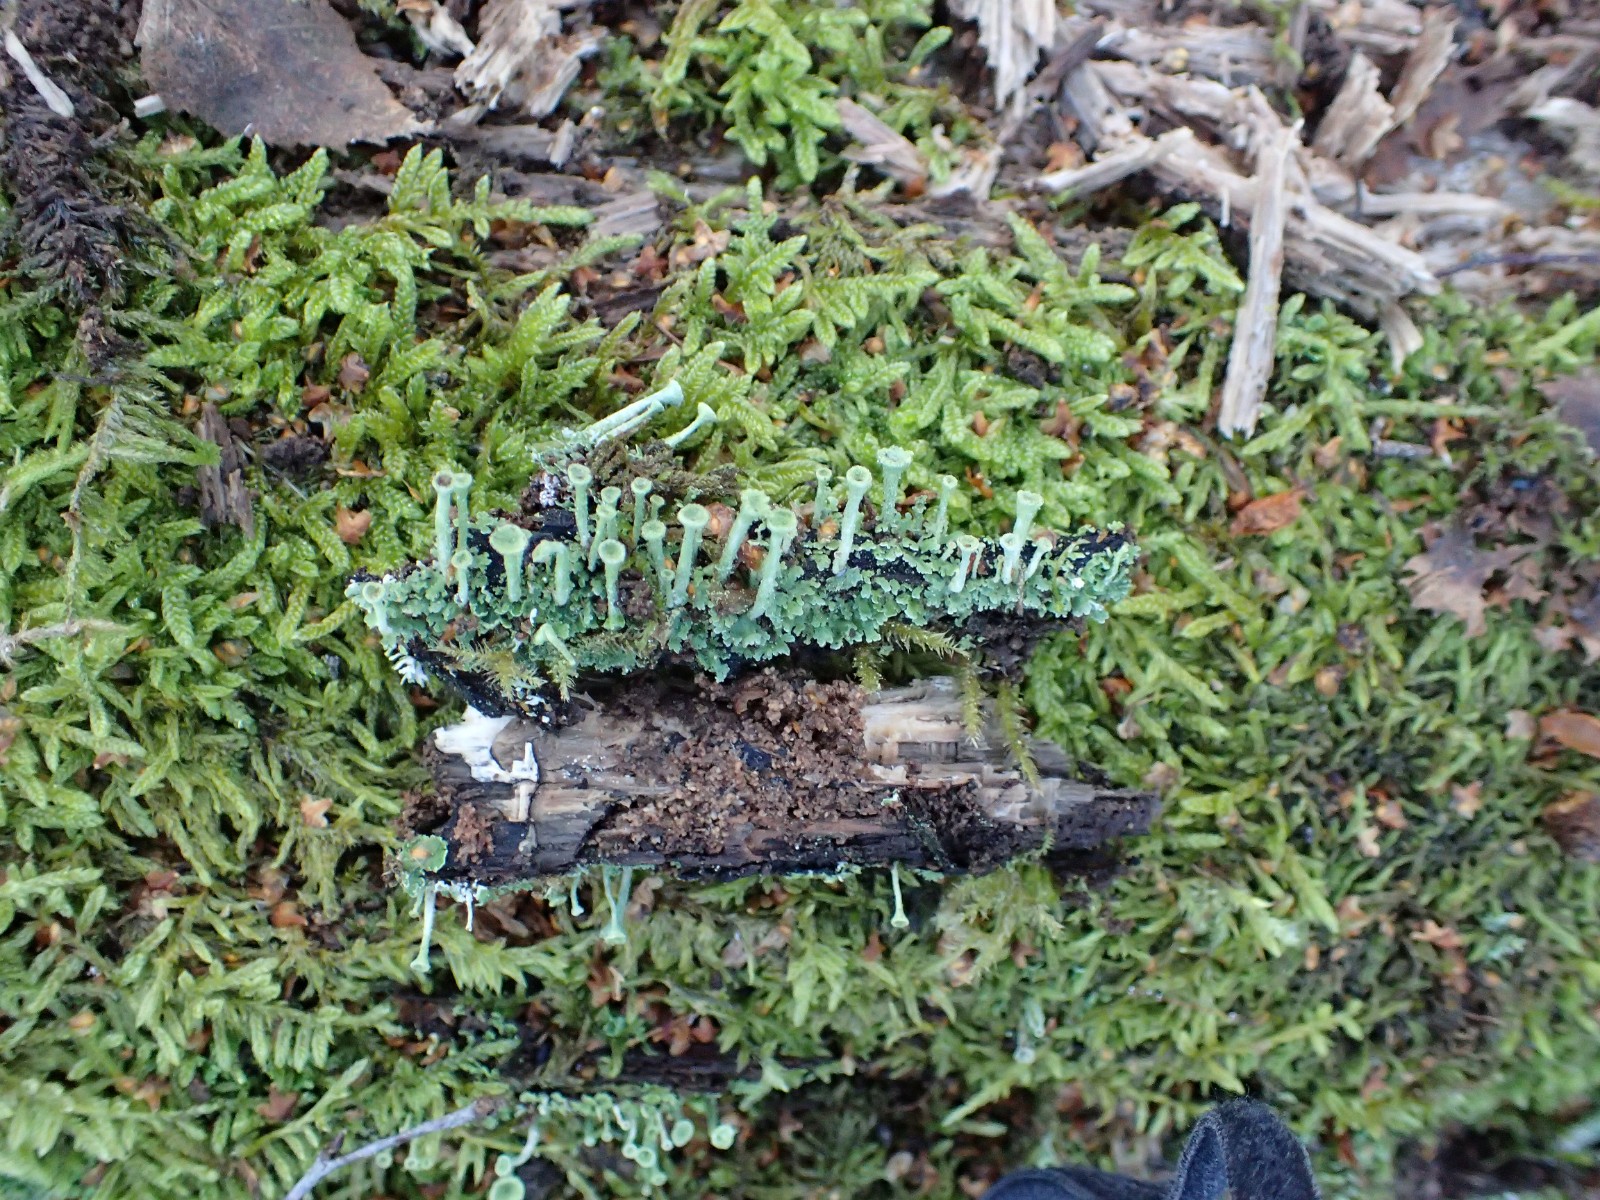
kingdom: Fungi
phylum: Ascomycota
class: Lecanoromycetes
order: Lecanorales
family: Cladoniaceae
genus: Cladonia
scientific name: Cladonia fimbriata
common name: bleggrøn bægerlav
